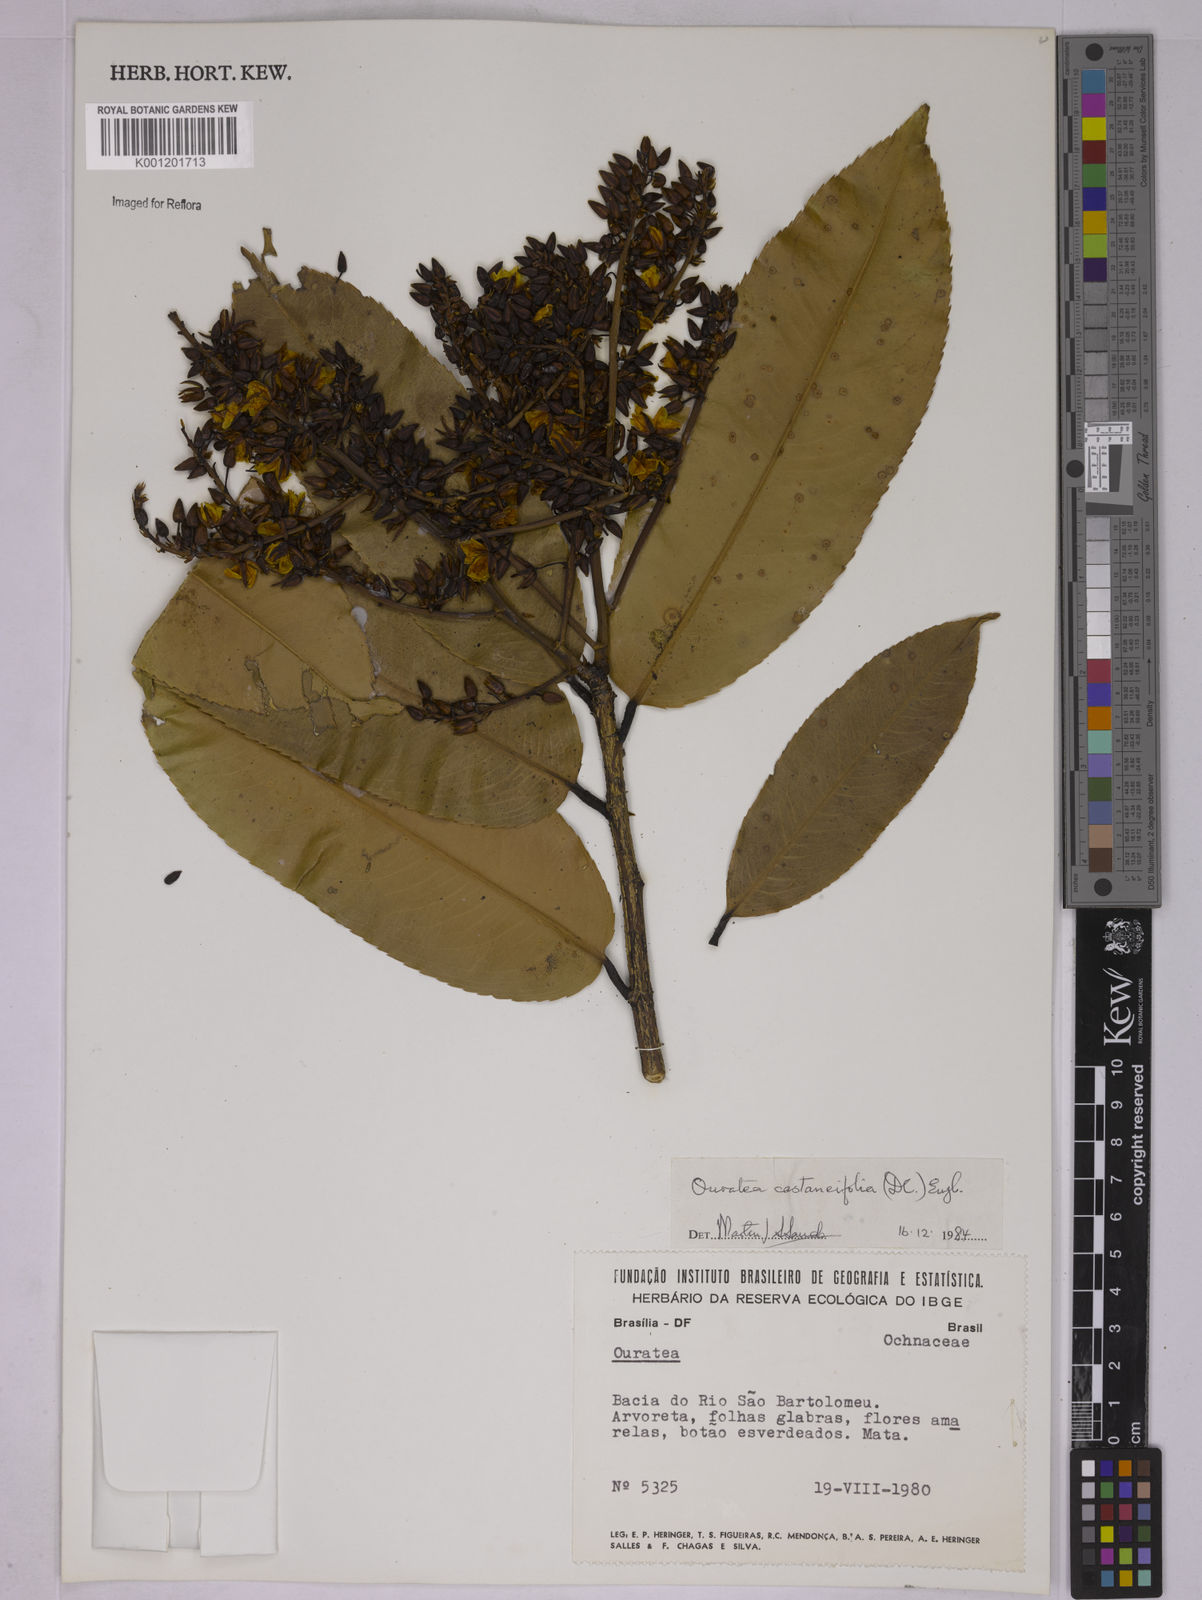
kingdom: Plantae
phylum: Tracheophyta
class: Magnoliopsida
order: Malpighiales
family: Ochnaceae
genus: Ouratea
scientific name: Ouratea castaneifolia
